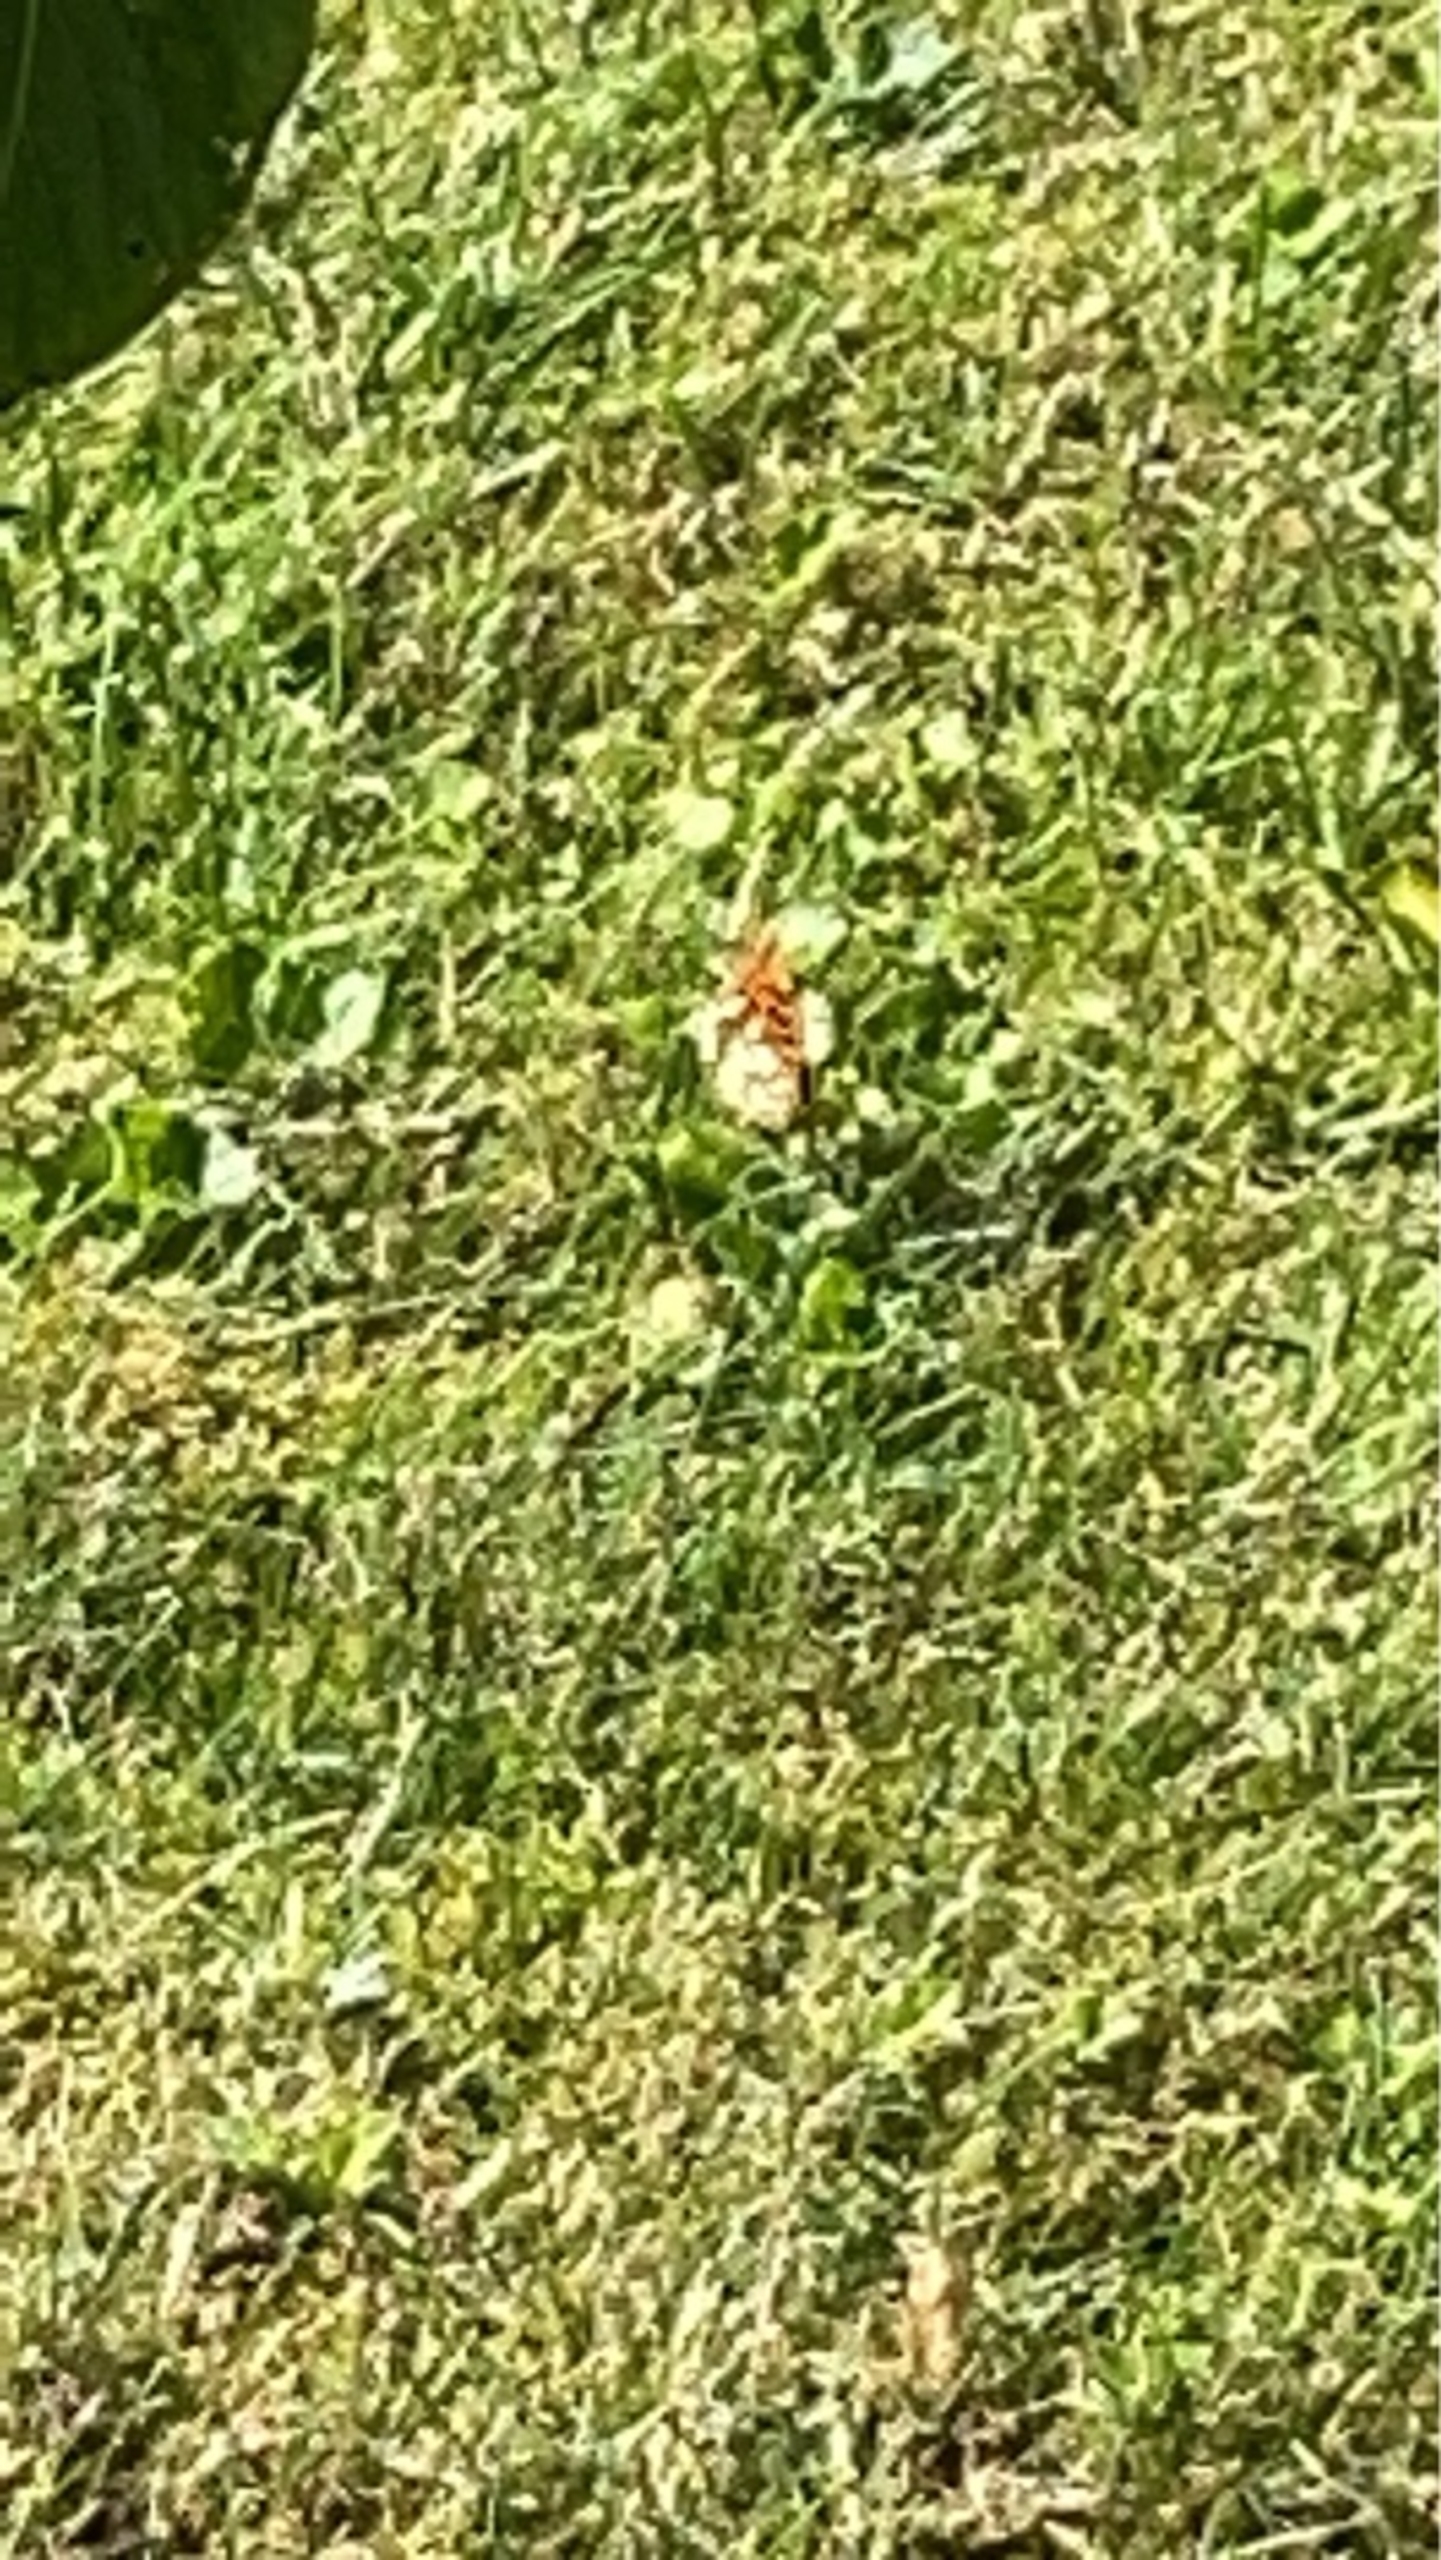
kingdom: Animalia
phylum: Arthropoda
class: Insecta
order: Lepidoptera
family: Nymphalidae
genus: Issoria
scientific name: Issoria lathonia
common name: Storplettet perlemorsommerfugl
